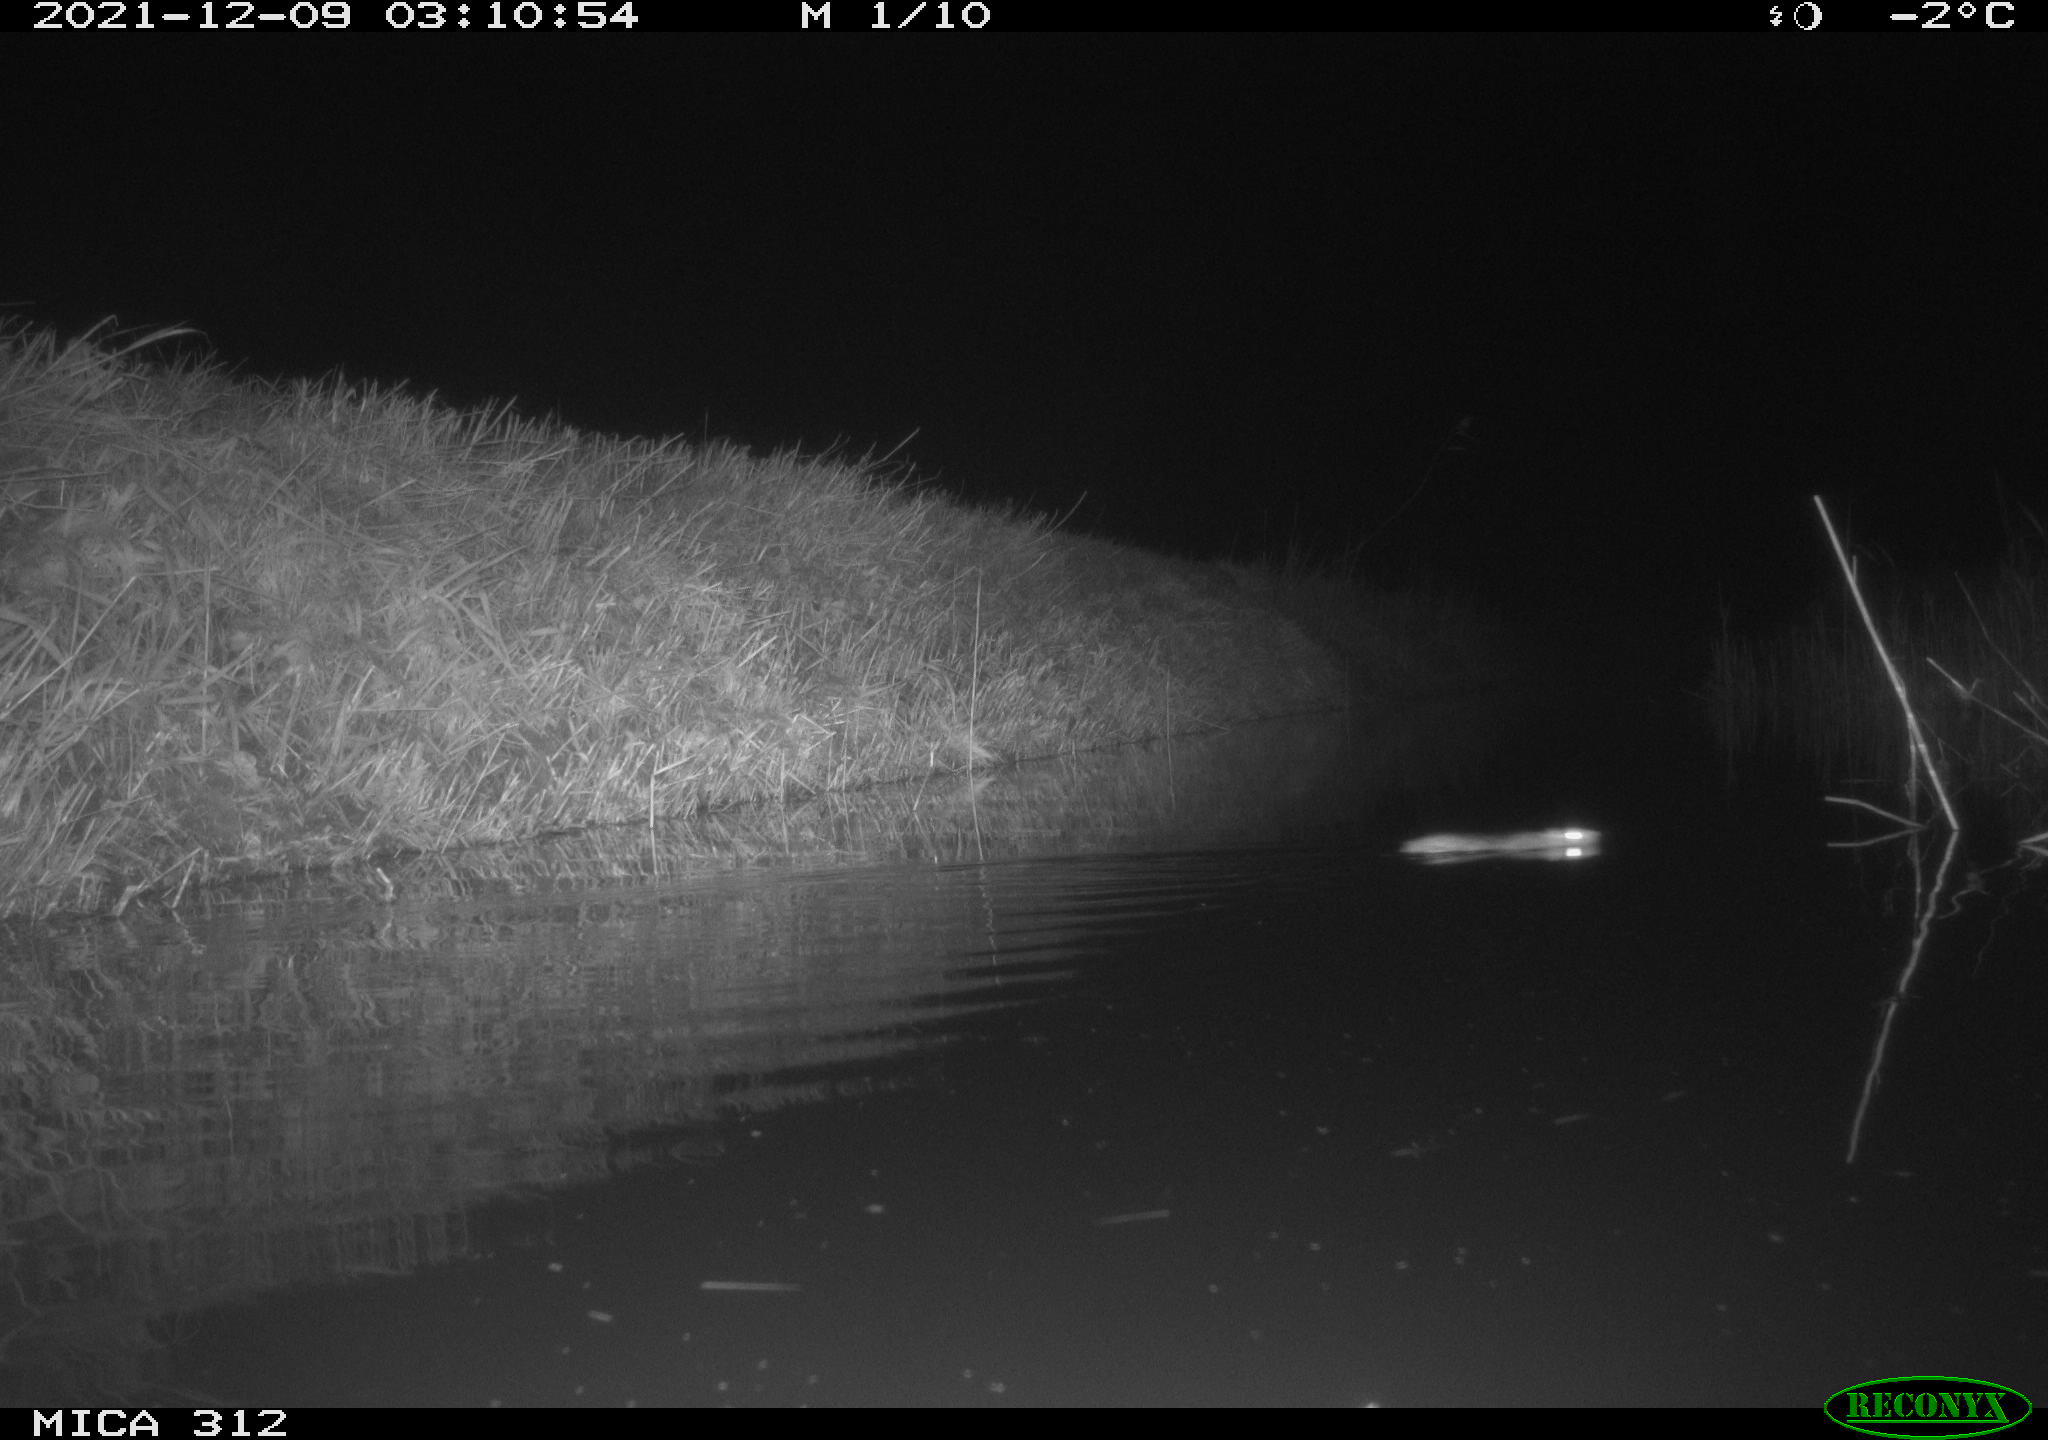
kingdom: Animalia
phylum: Chordata
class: Mammalia
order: Rodentia
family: Muridae
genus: Rattus
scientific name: Rattus norvegicus
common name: Brown rat
